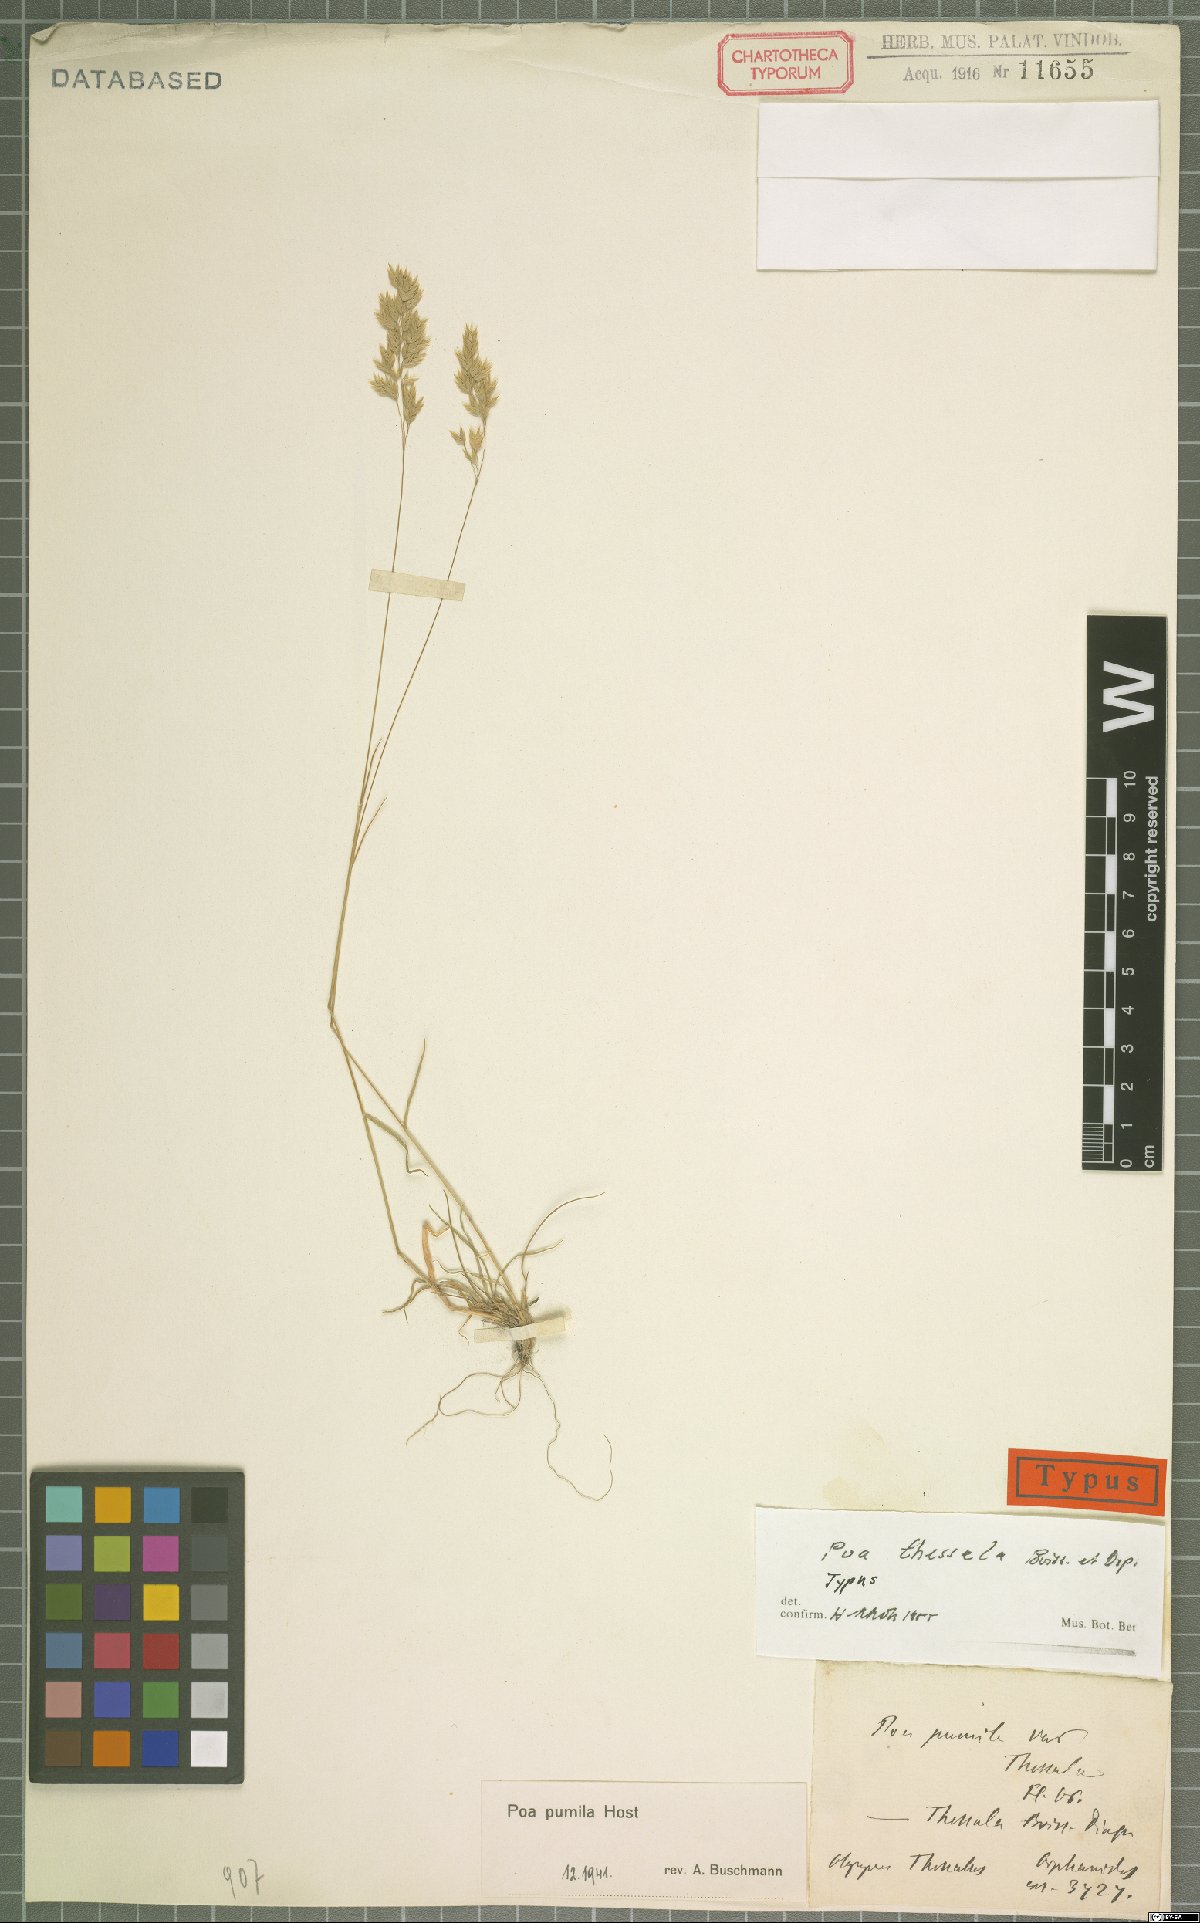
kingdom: Plantae
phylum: Tracheophyta
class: Liliopsida
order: Poales
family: Poaceae
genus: Poa
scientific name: Poa thessala
